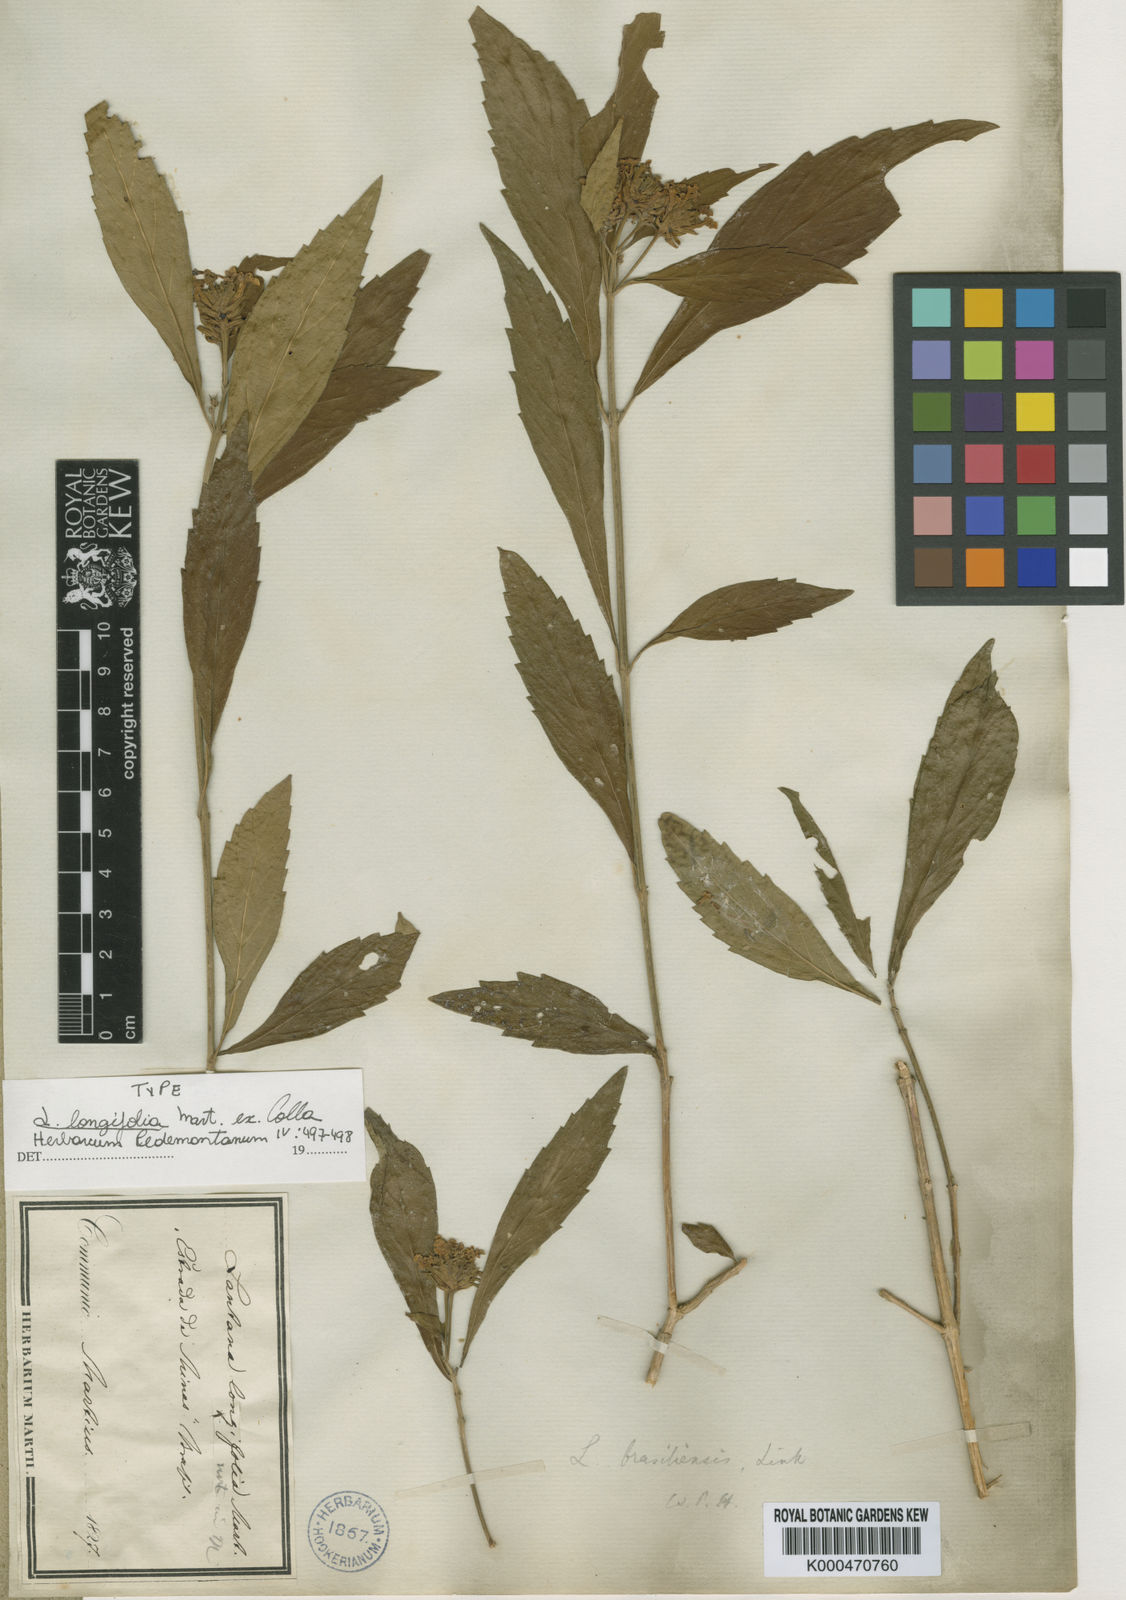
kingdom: Plantae
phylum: Tracheophyta
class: Magnoliopsida
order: Lamiales
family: Verbenaceae
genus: Lippia
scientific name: Lippia brasiliensis
